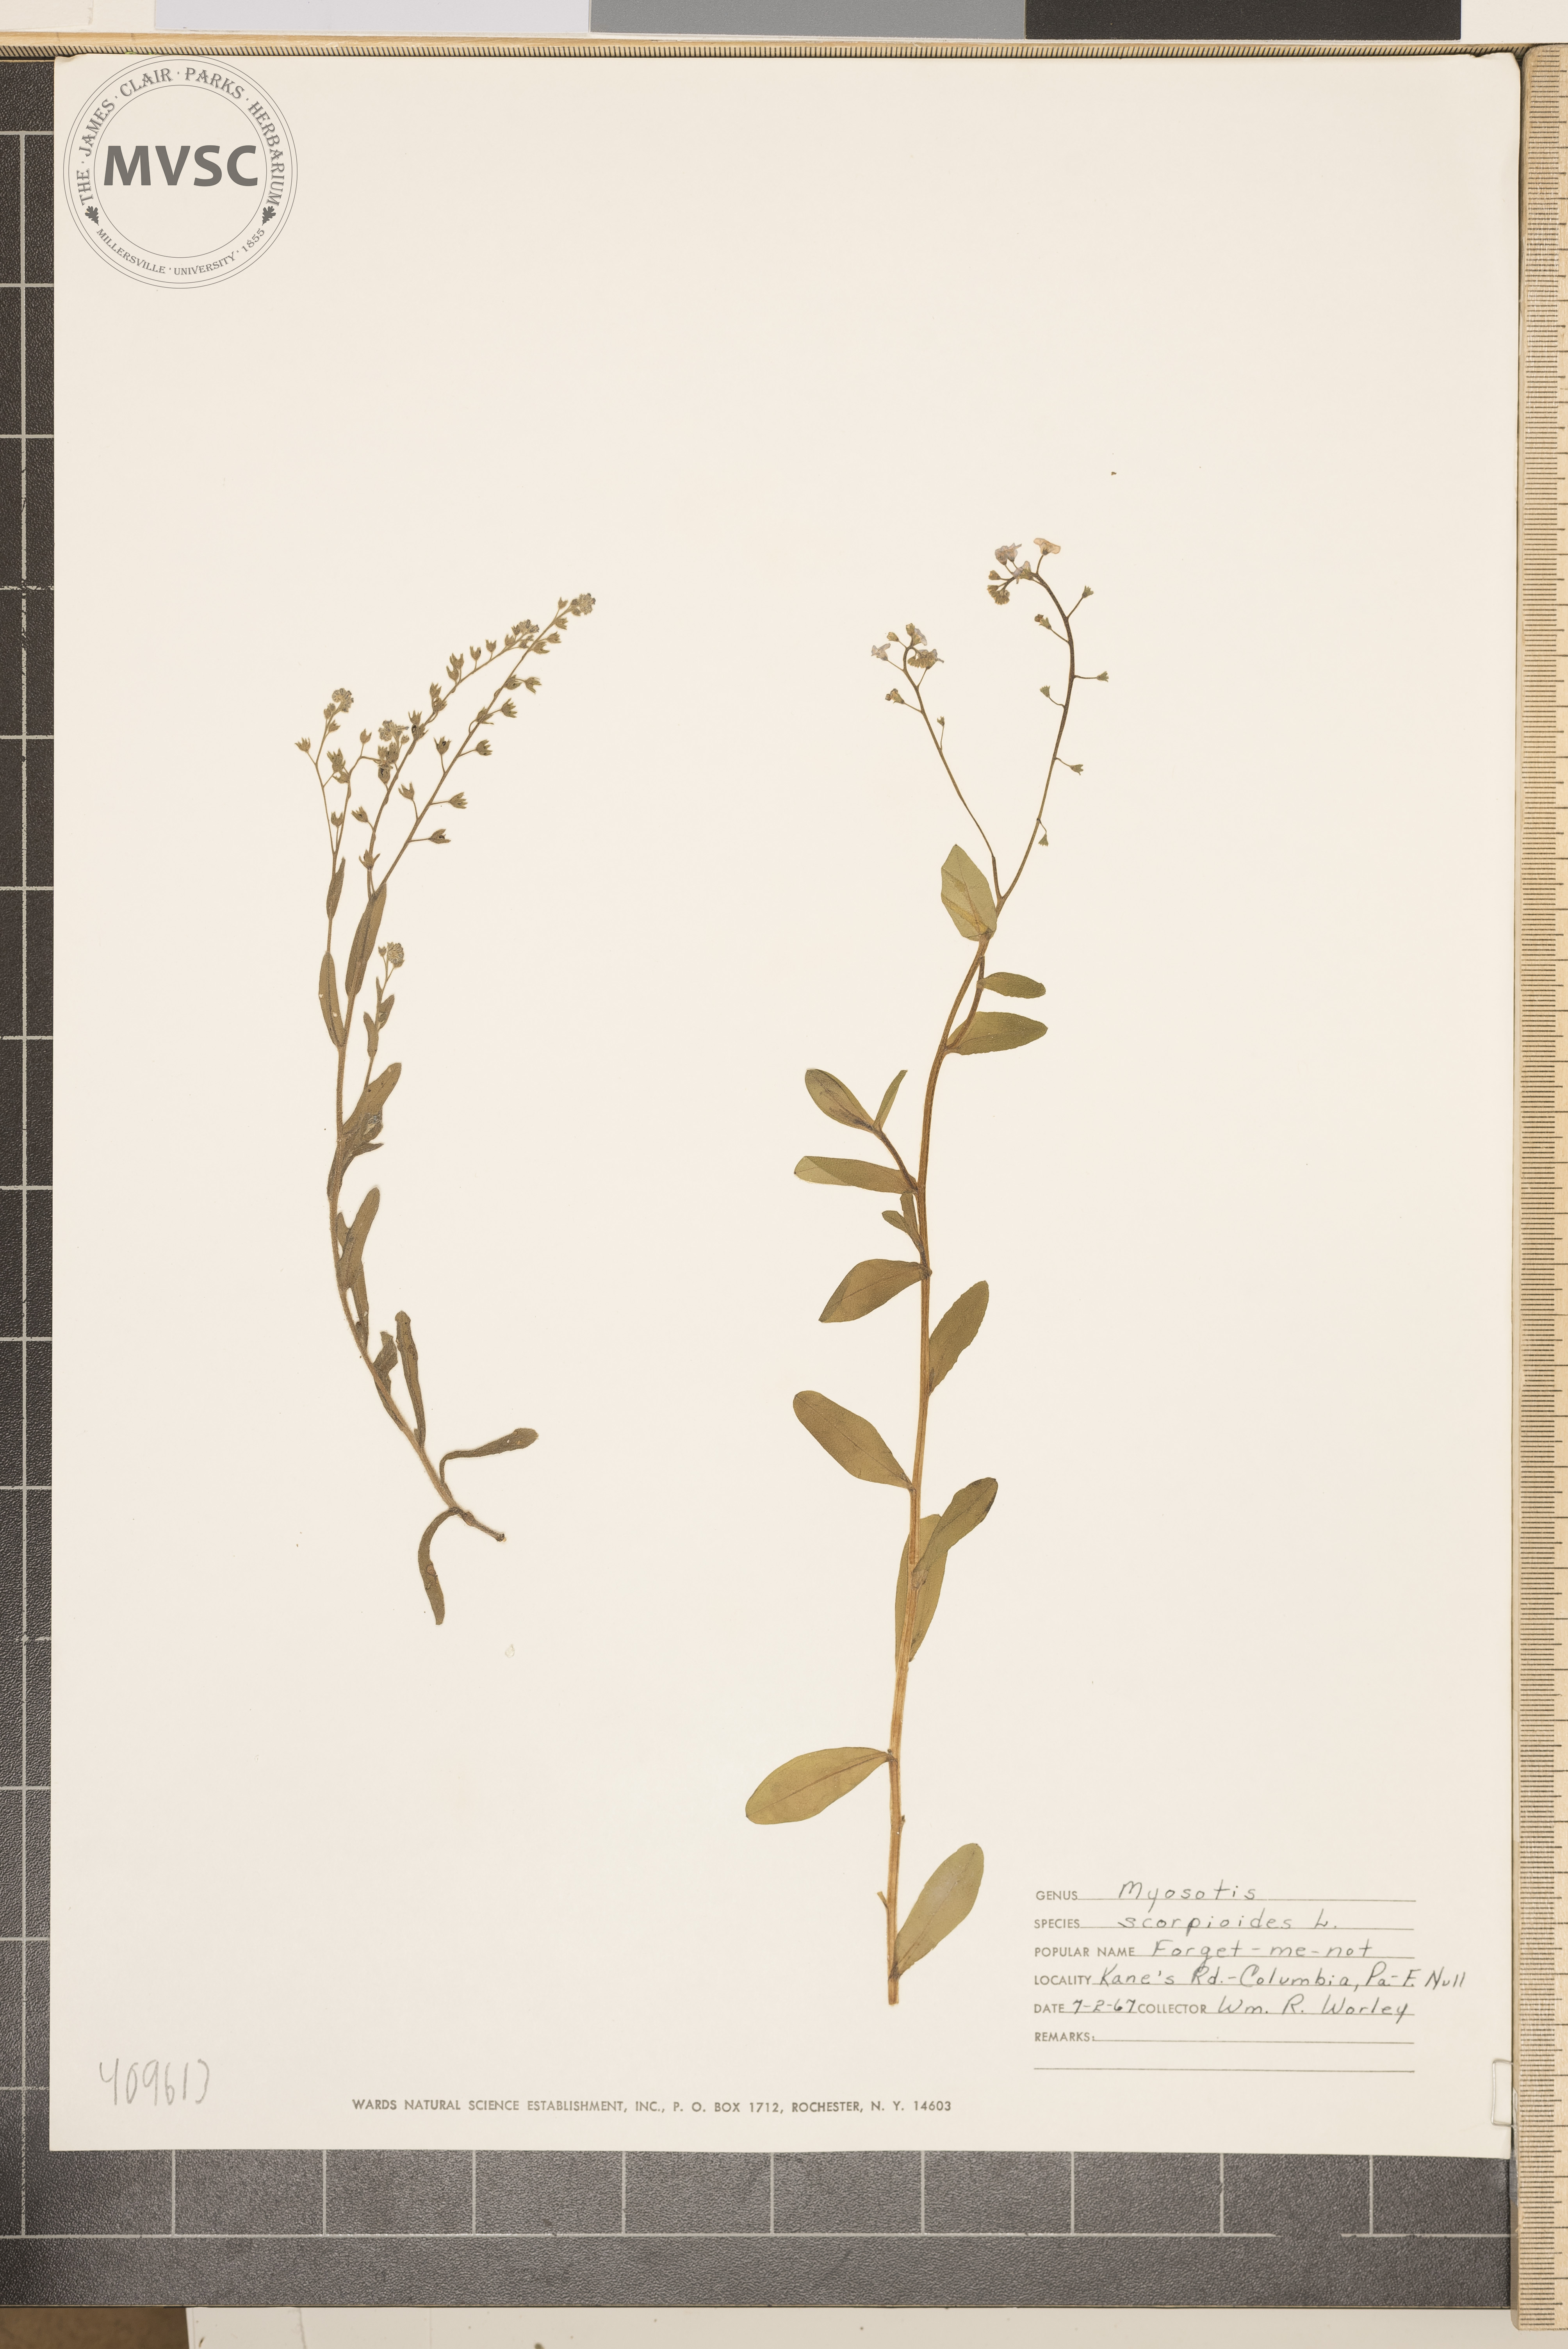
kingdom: Plantae
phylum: Tracheophyta
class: Magnoliopsida
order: Boraginales
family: Boraginaceae
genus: Myosotis
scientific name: Myosotis scorpioides
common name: Water forget-me-not
